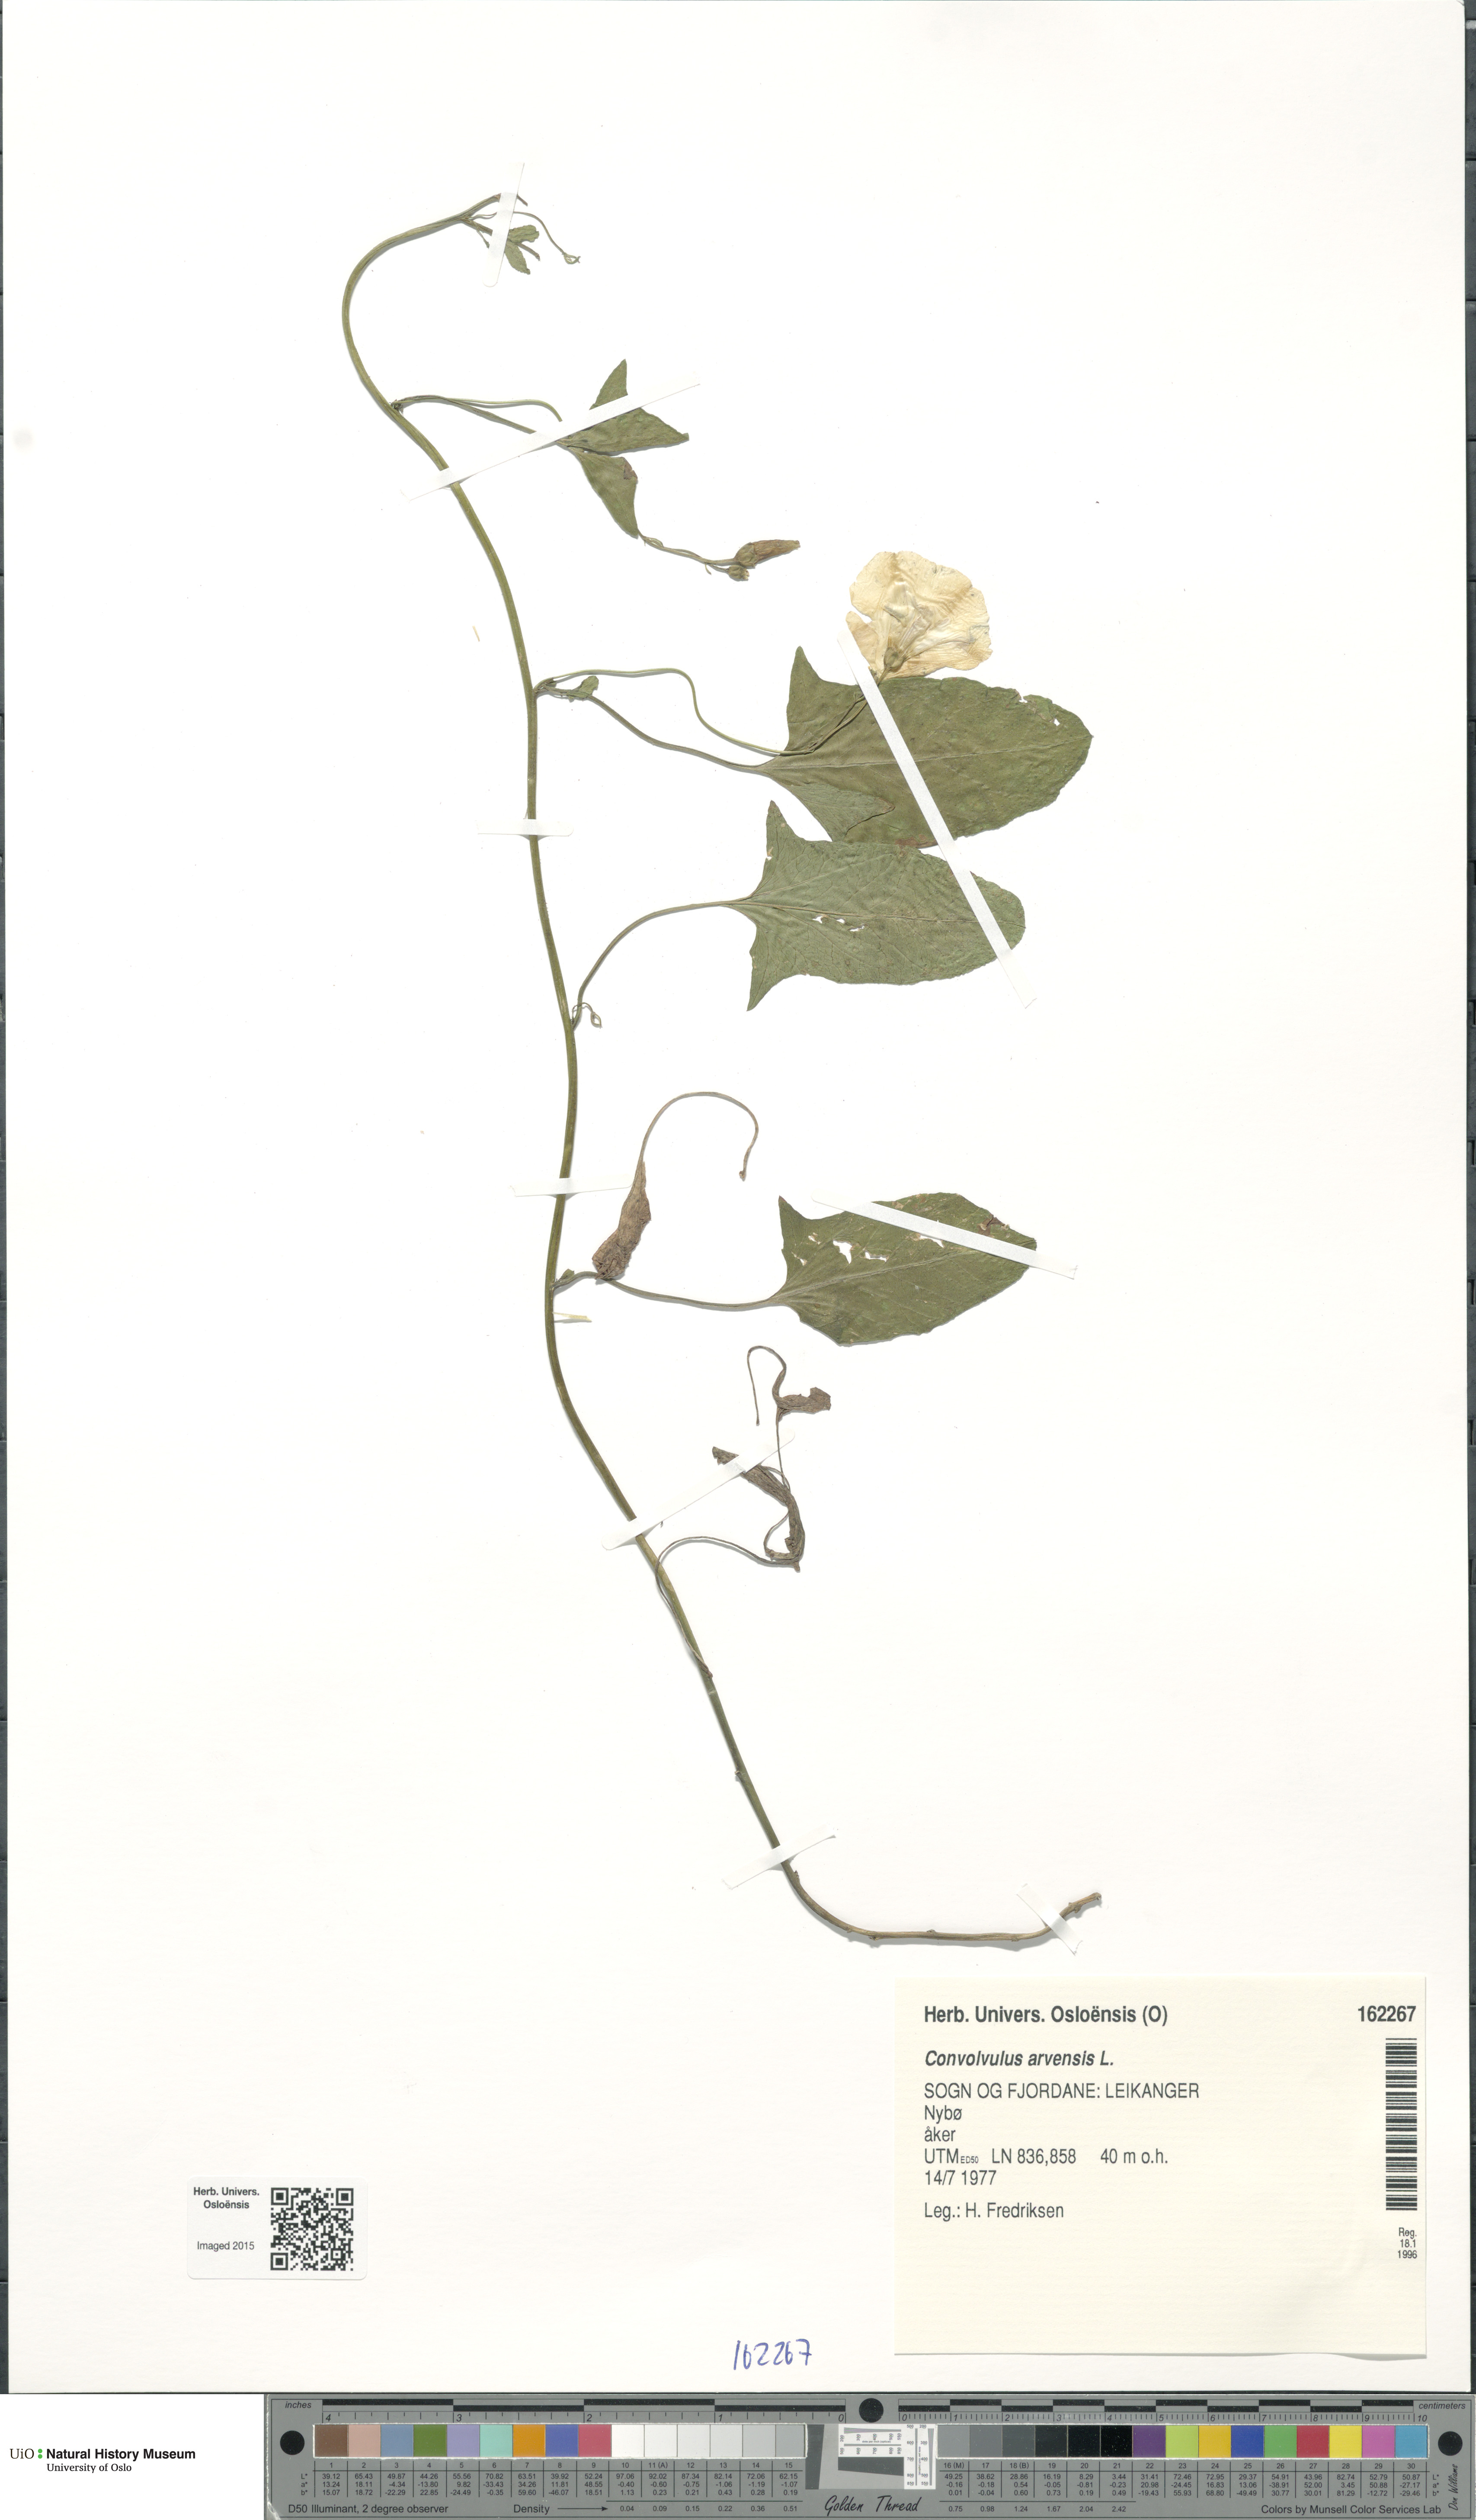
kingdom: Plantae
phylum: Tracheophyta
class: Magnoliopsida
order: Solanales
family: Convolvulaceae
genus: Convolvulus
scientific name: Convolvulus arvensis
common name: Field bindweed
